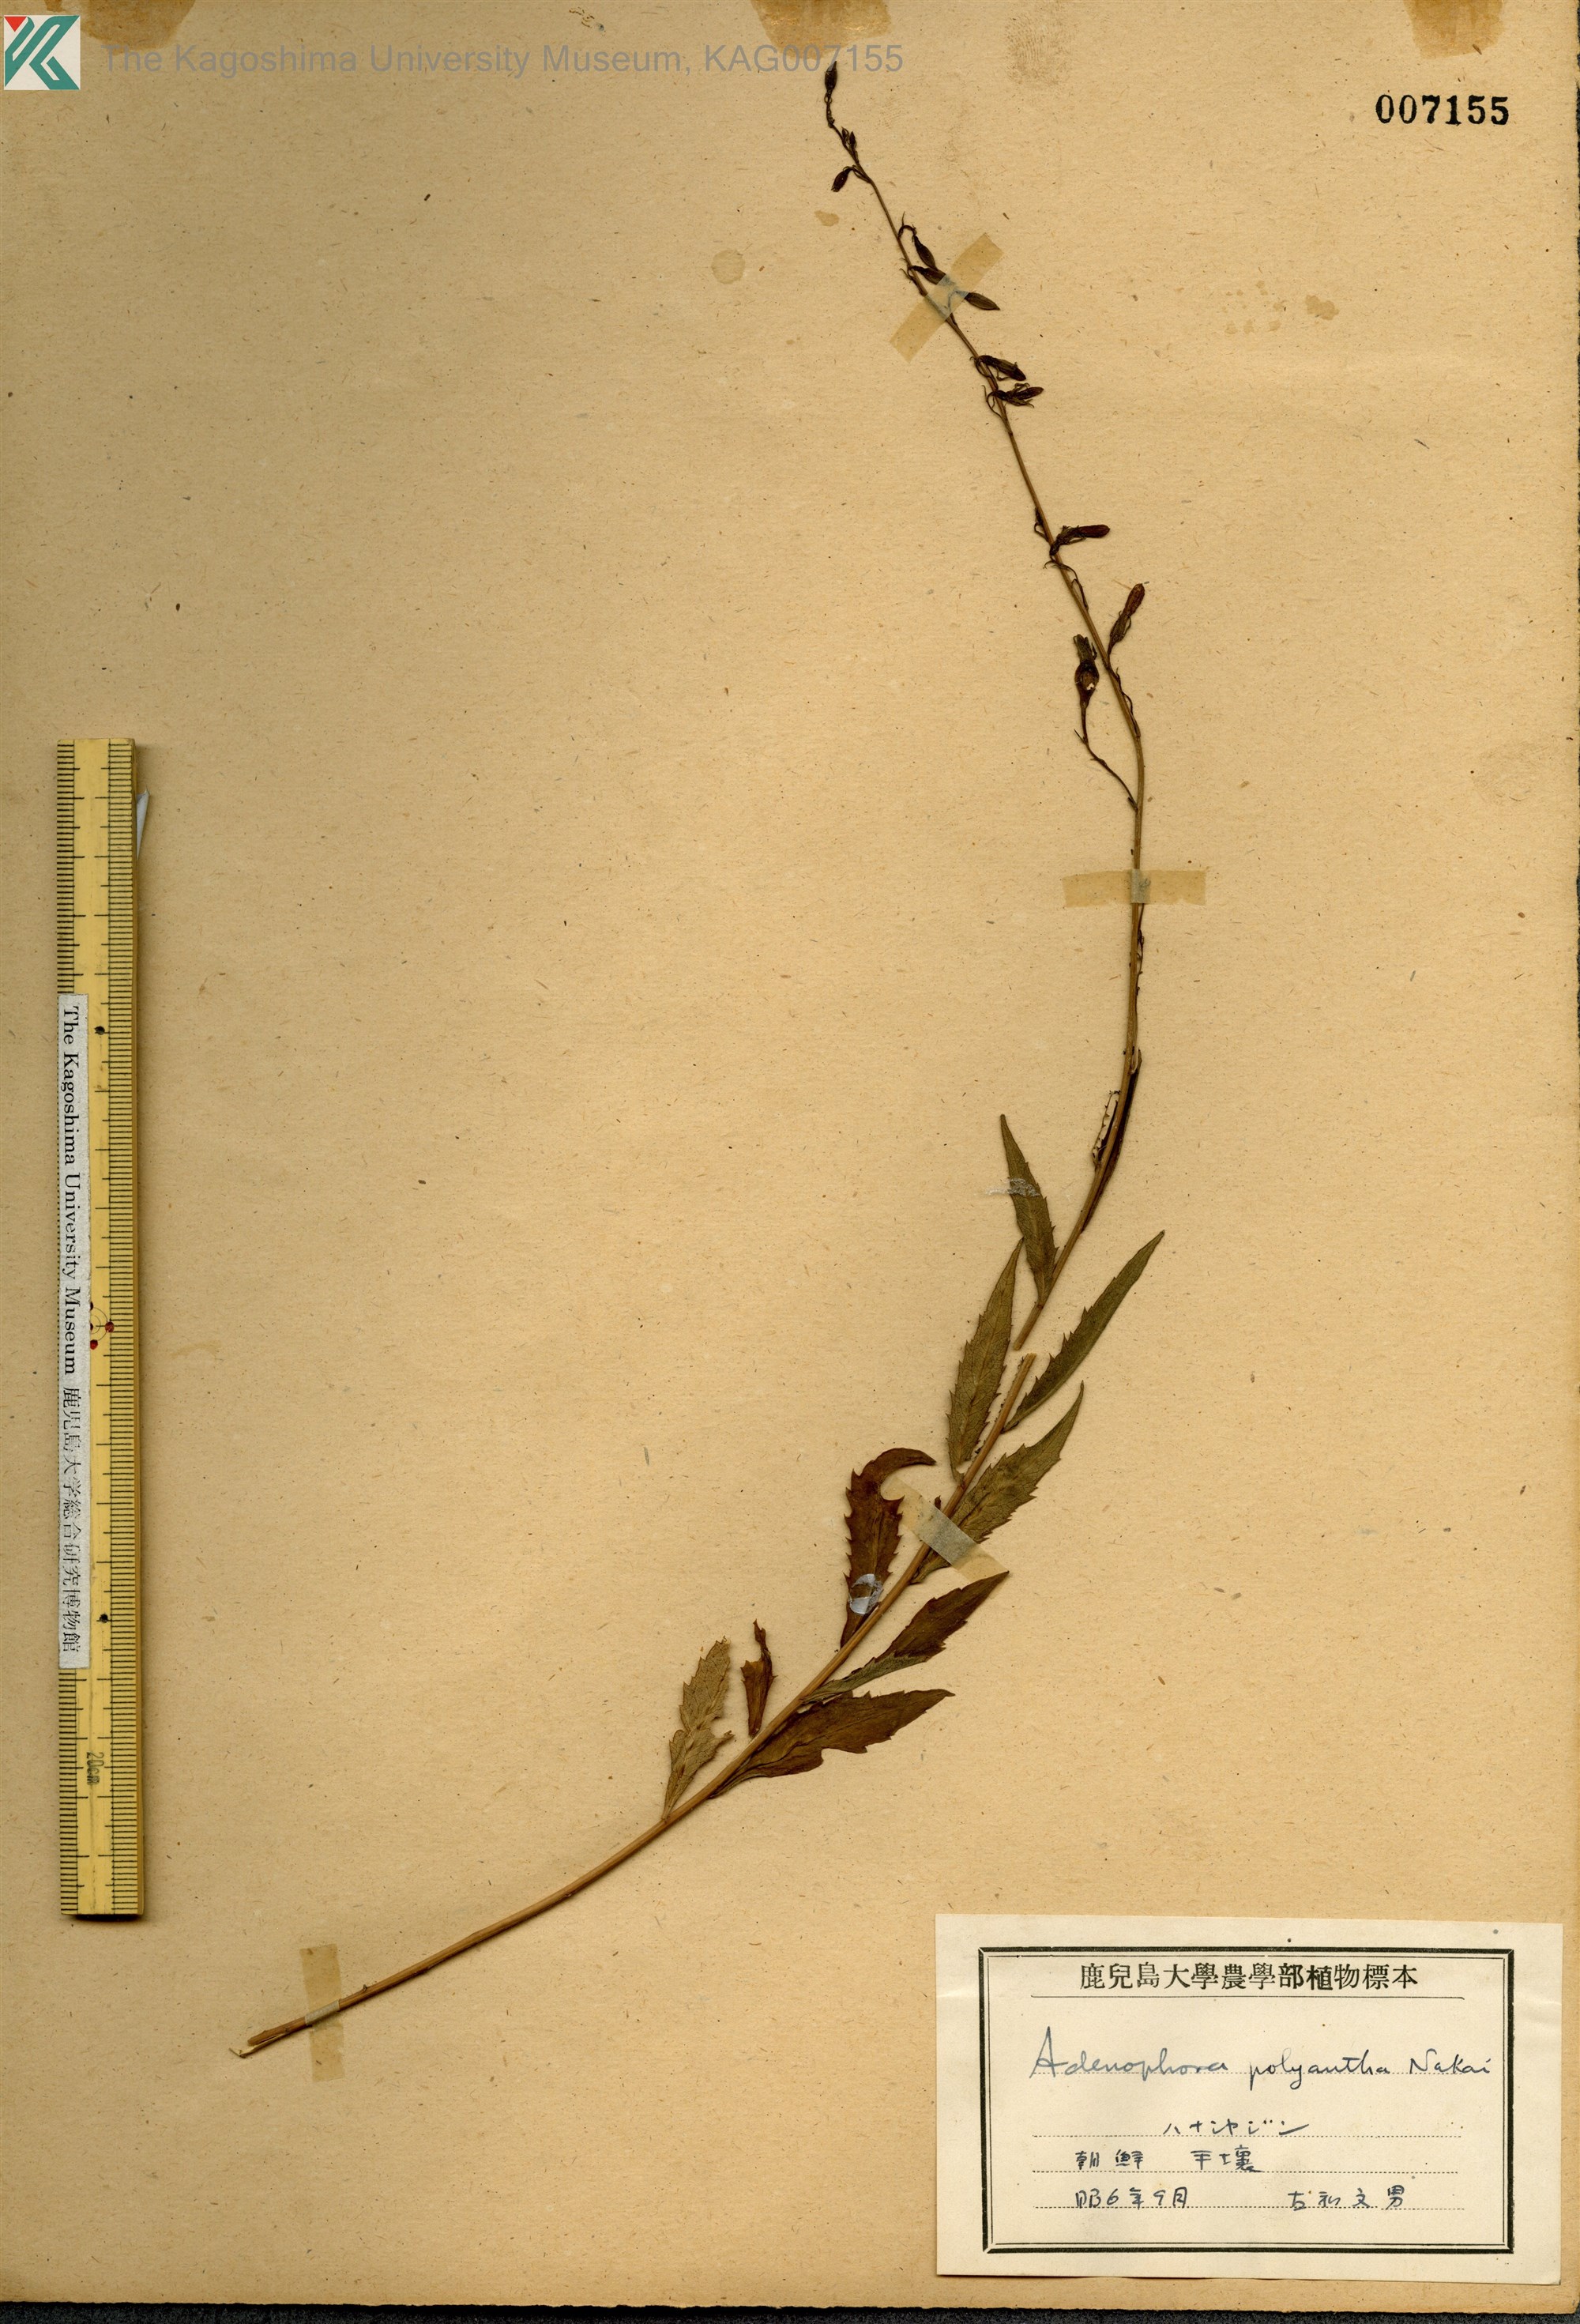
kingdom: Plantae
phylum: Tracheophyta
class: Magnoliopsida
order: Asterales
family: Campanulaceae
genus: Adenophora
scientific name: Adenophora polyantha
